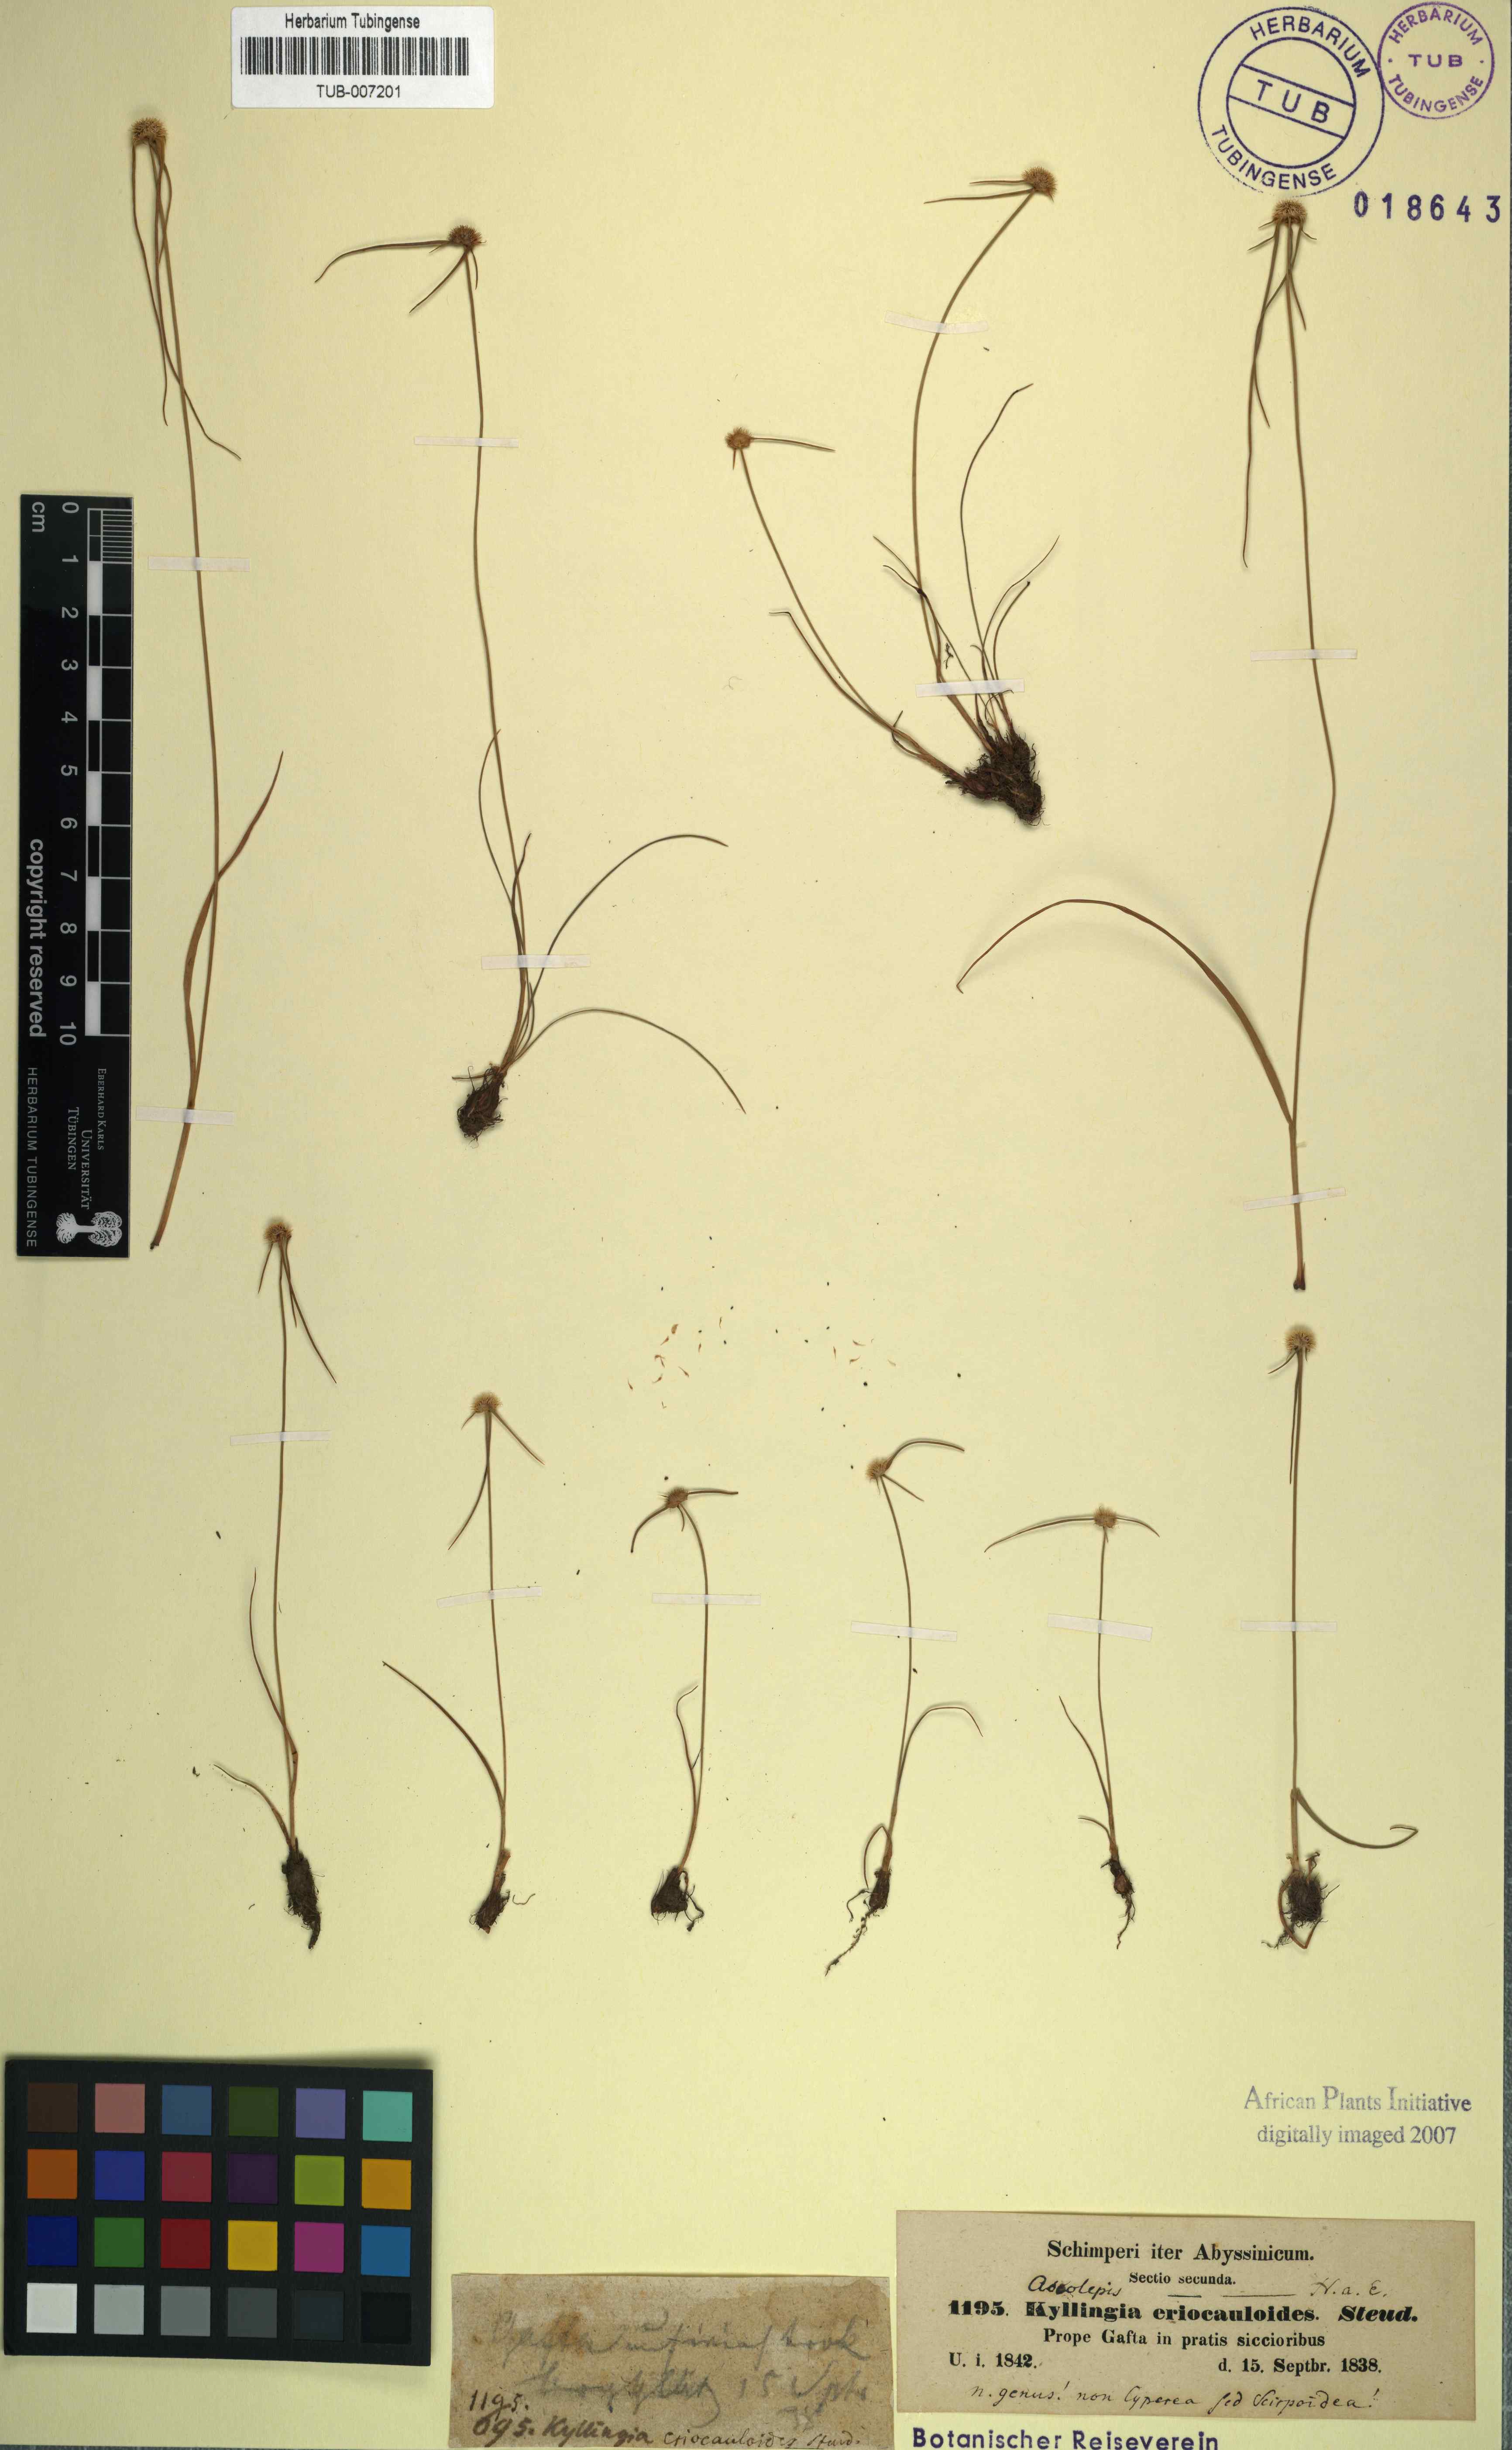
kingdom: Plantae
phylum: Tracheophyta
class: Liliopsida
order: Poales
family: Cyperaceae
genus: Ascolepis
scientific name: Ascolepis eriocaulides
